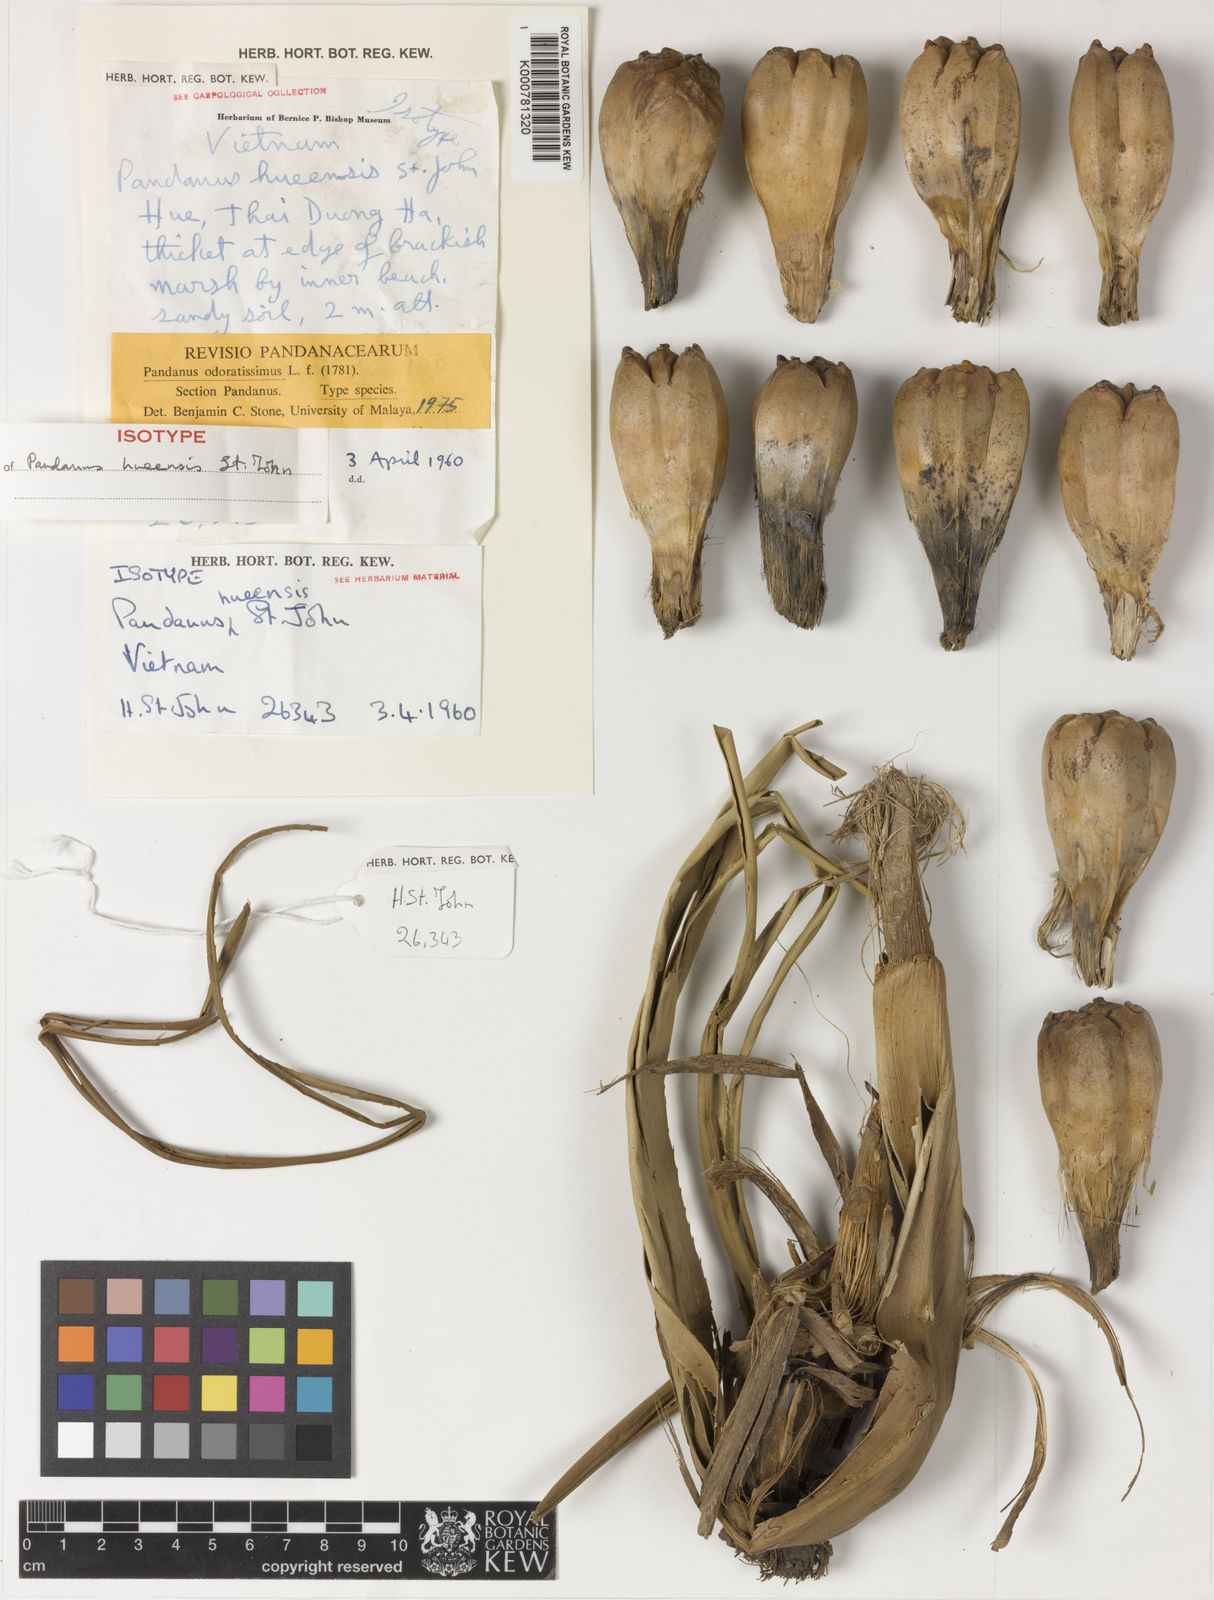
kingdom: Plantae
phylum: Tracheophyta
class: Liliopsida
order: Pandanales
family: Pandanaceae
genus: Pandanus
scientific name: Pandanus odorifer
